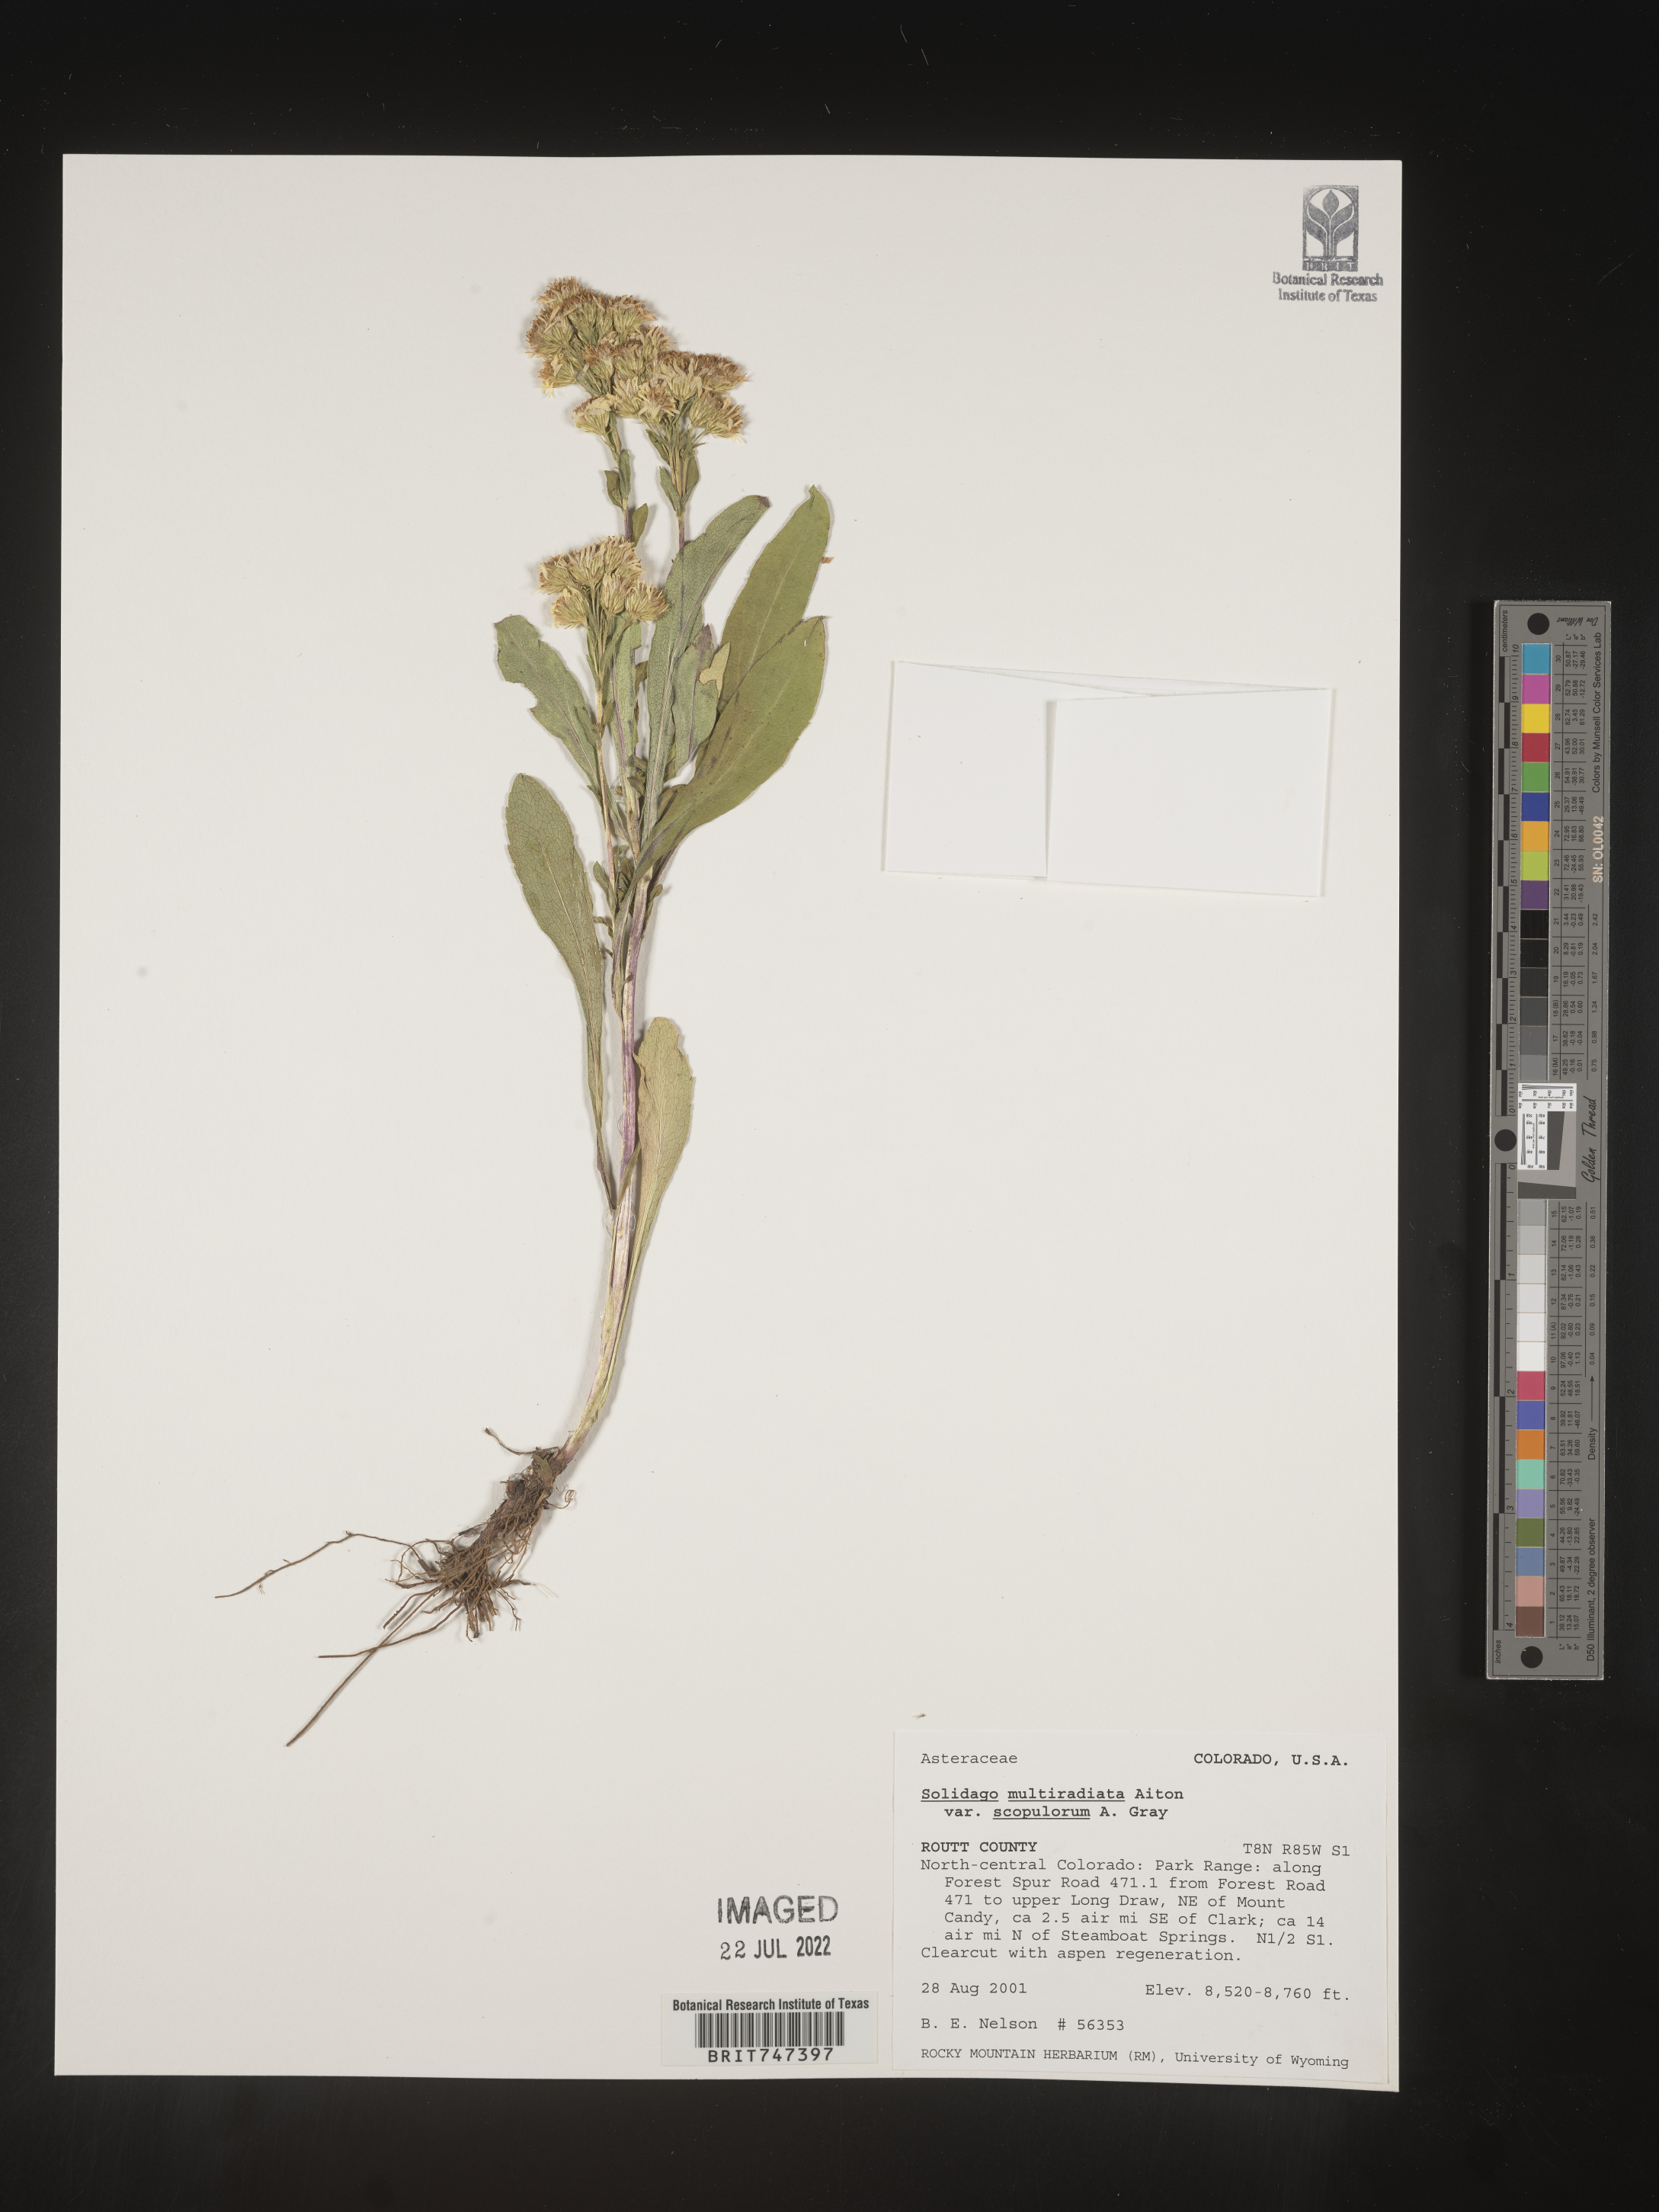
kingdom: Plantae
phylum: Tracheophyta
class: Magnoliopsida
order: Asterales
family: Asteraceae
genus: Solidago
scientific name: Solidago multiradiata
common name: Northern goldenrod
